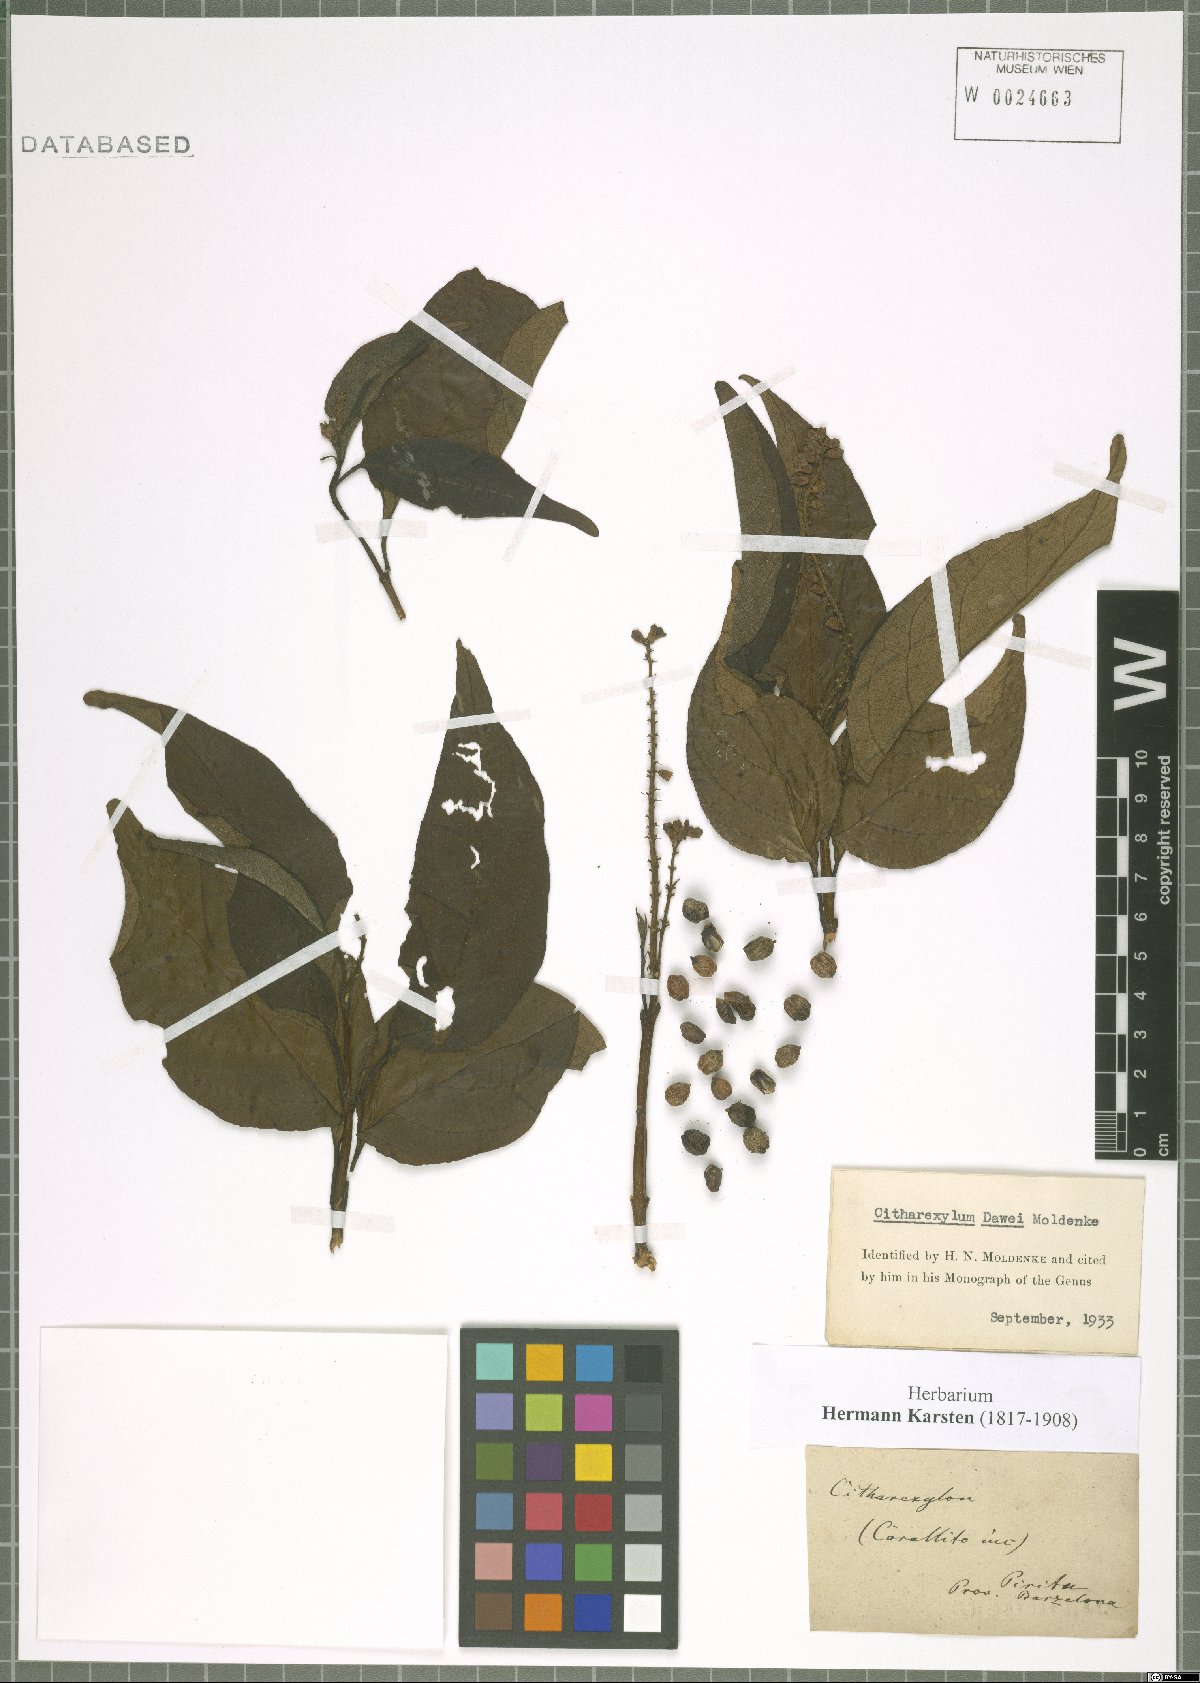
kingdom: Plantae
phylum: Tracheophyta
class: Magnoliopsida
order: Lamiales
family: Verbenaceae
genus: Citharexylum
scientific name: Citharexylum karstenii
